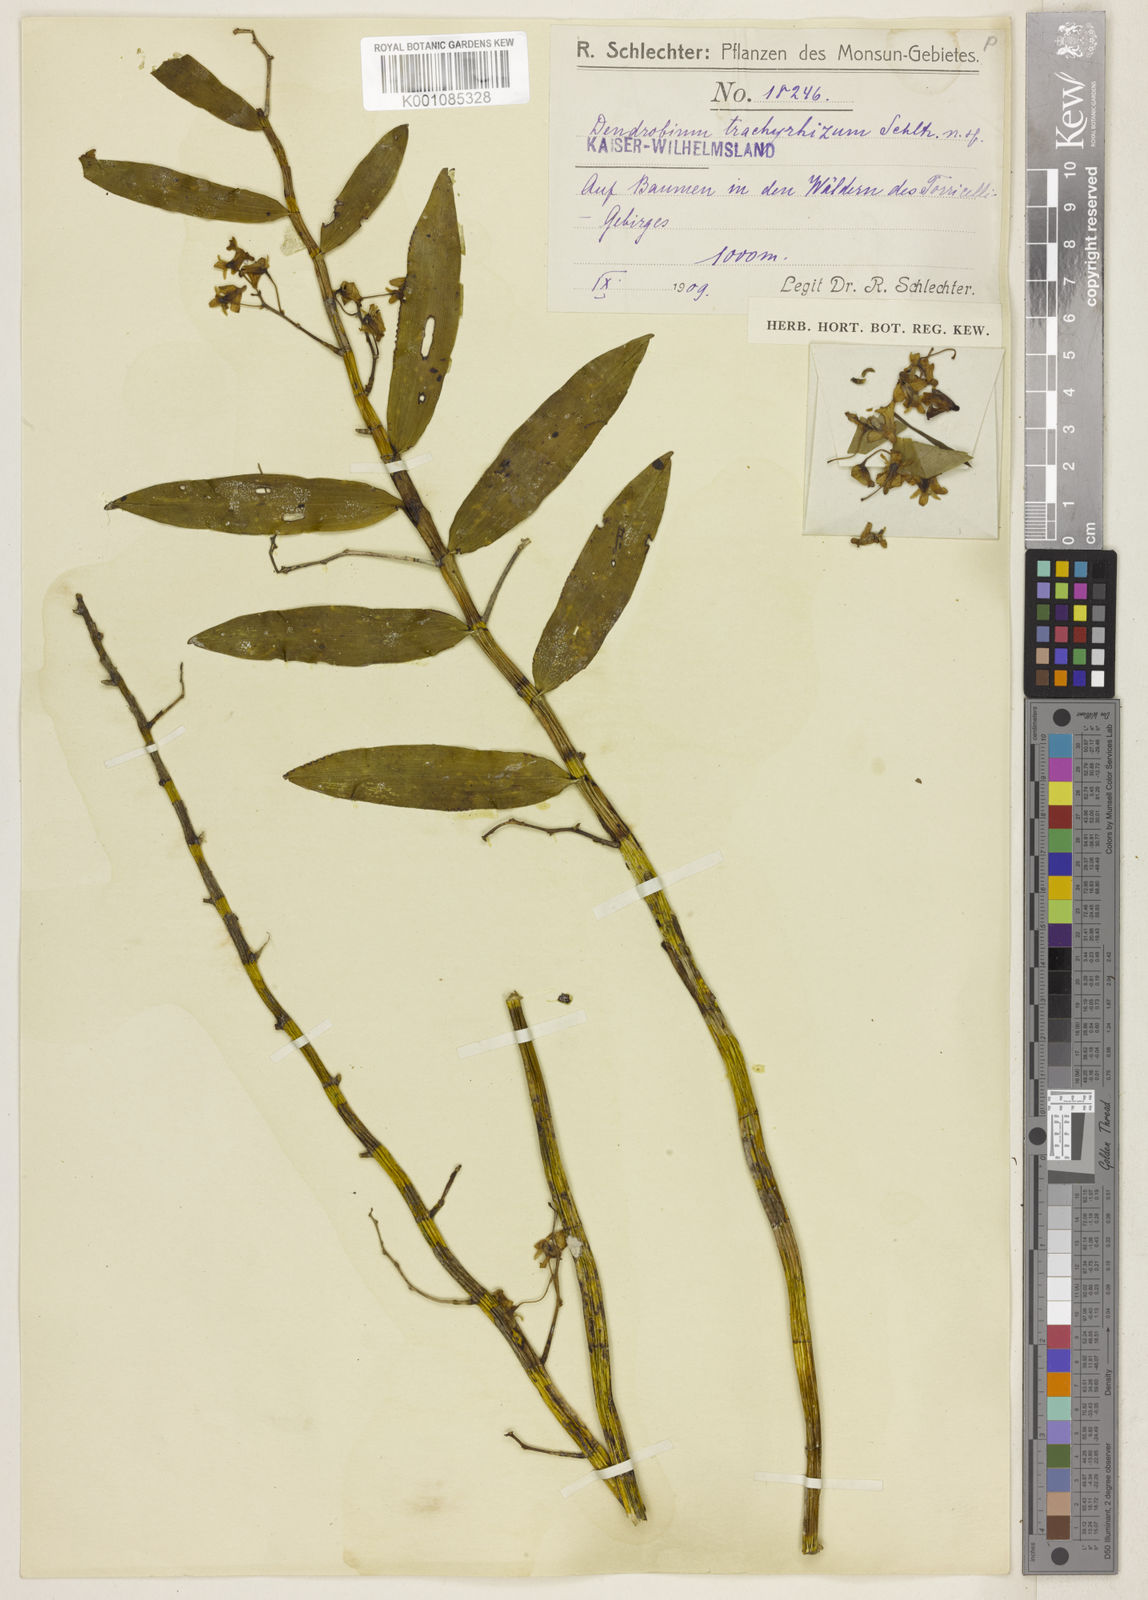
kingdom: Plantae
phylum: Tracheophyta
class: Liliopsida
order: Asparagales
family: Orchidaceae
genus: Dendrobium
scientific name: Dendrobium angustipetalum
